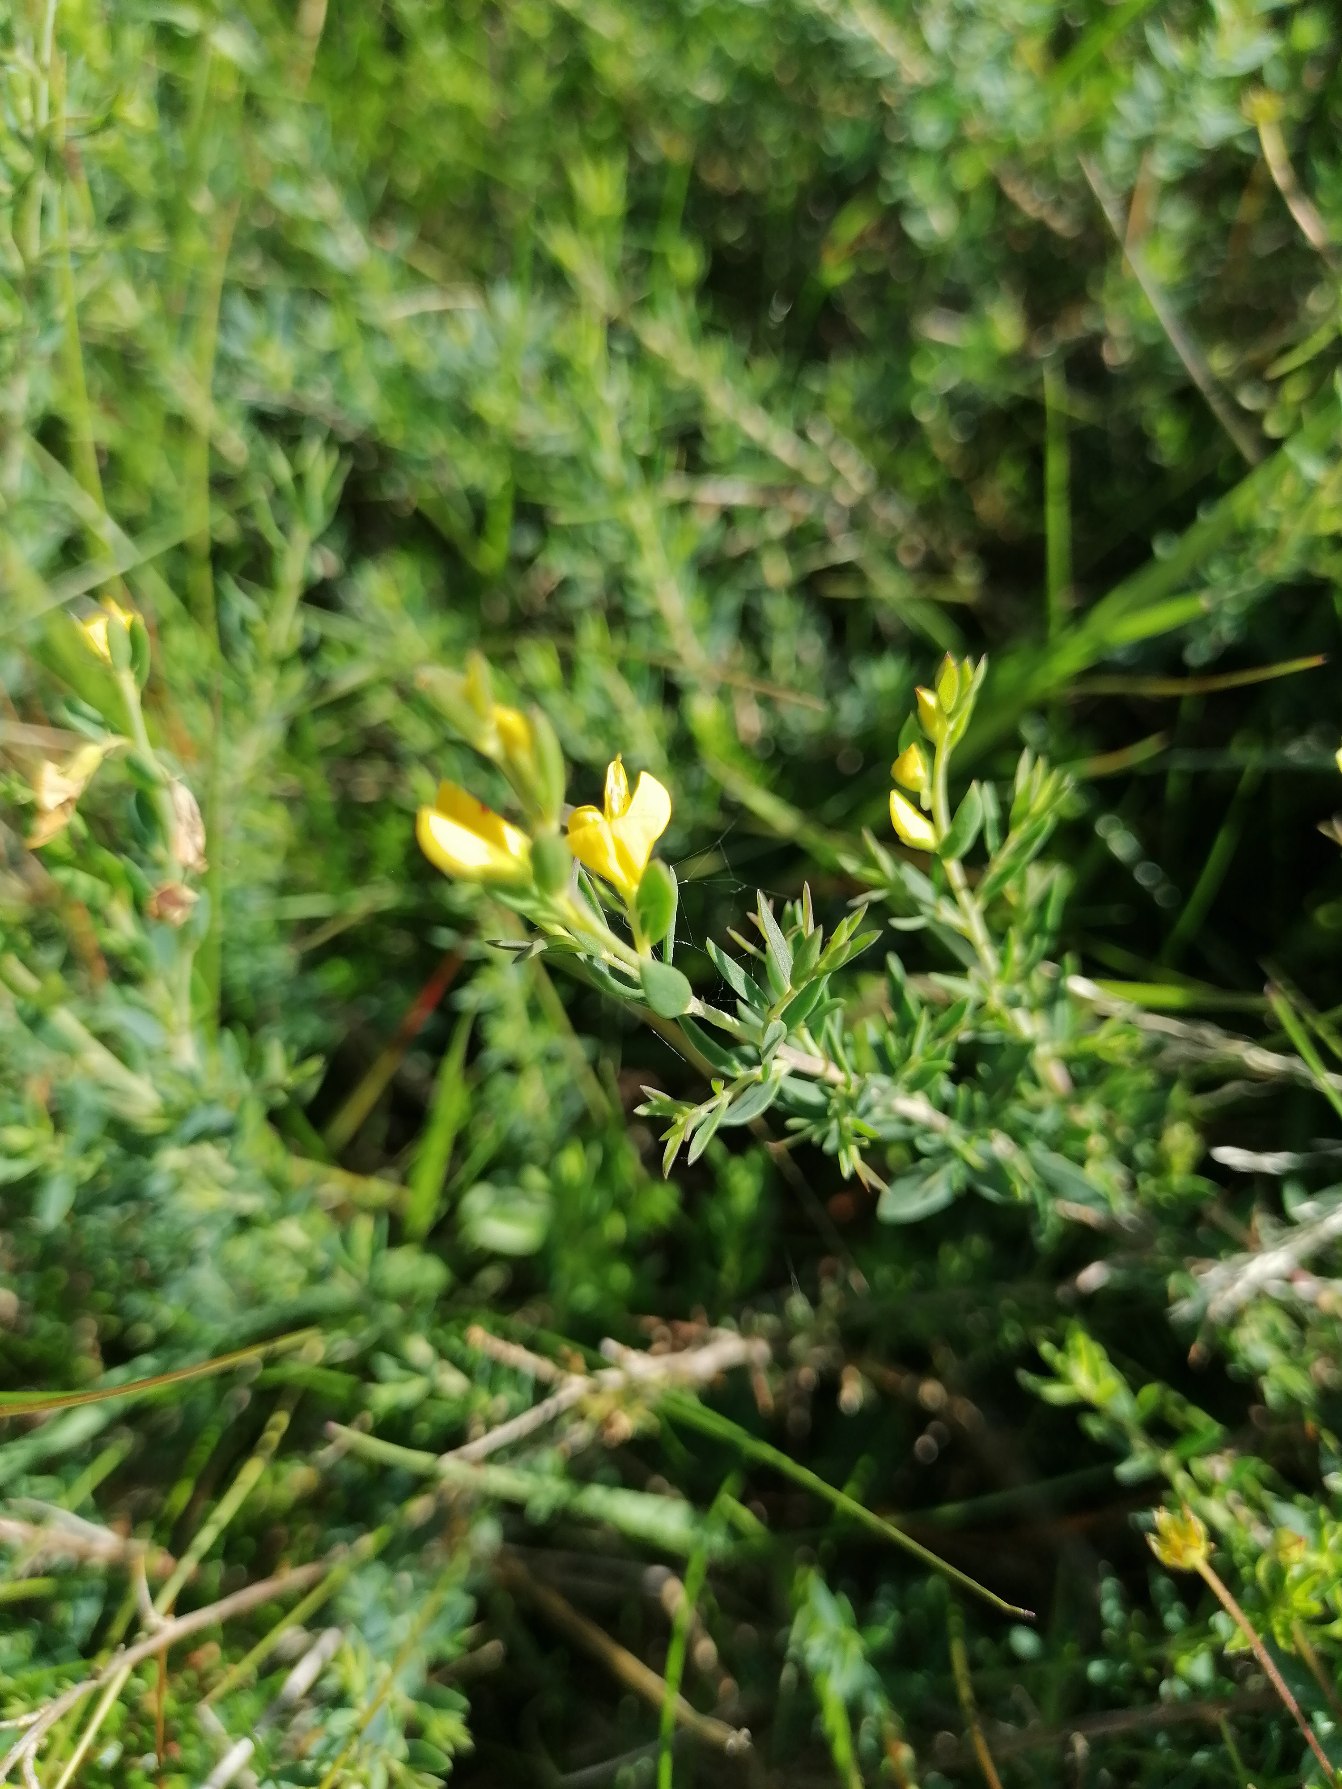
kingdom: Plantae
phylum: Tracheophyta
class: Magnoliopsida
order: Fabales
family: Fabaceae
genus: Genista
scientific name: Genista anglica
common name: Engelsk visse
